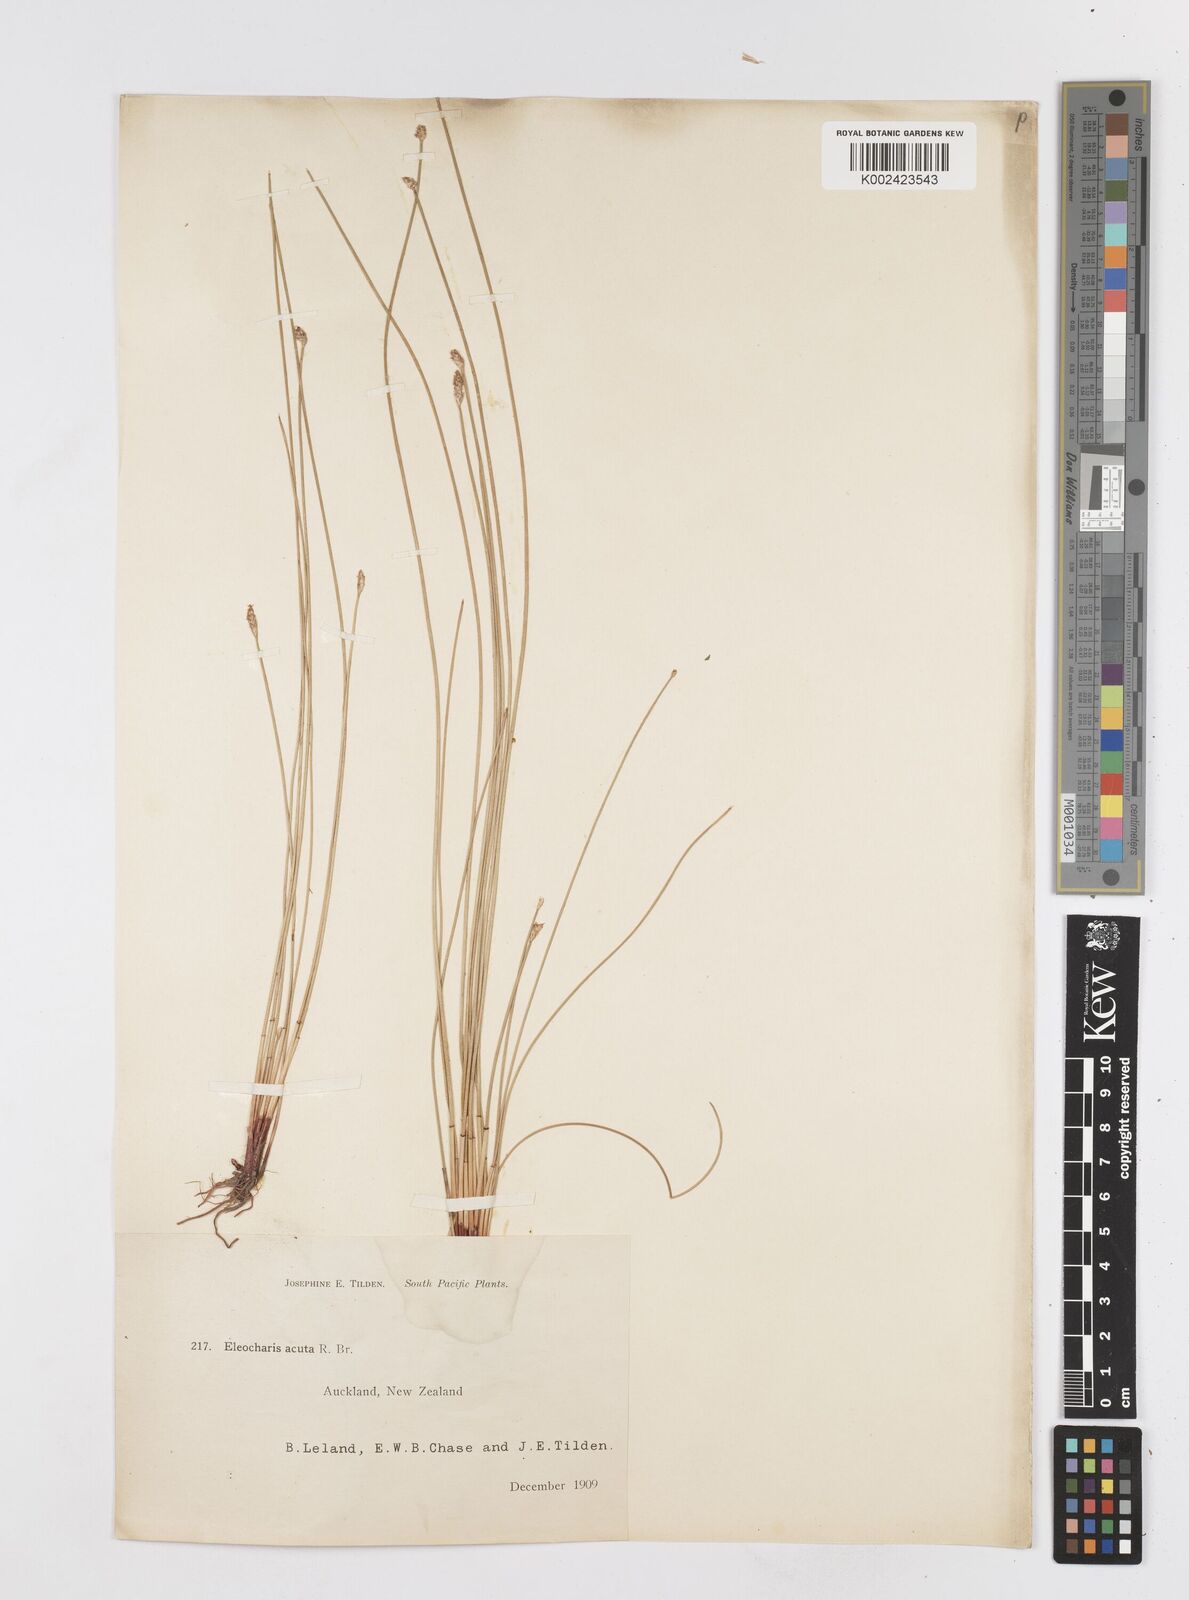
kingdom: Plantae
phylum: Tracheophyta
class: Liliopsida
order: Poales
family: Cyperaceae
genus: Eleocharis
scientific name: Eleocharis acuta
